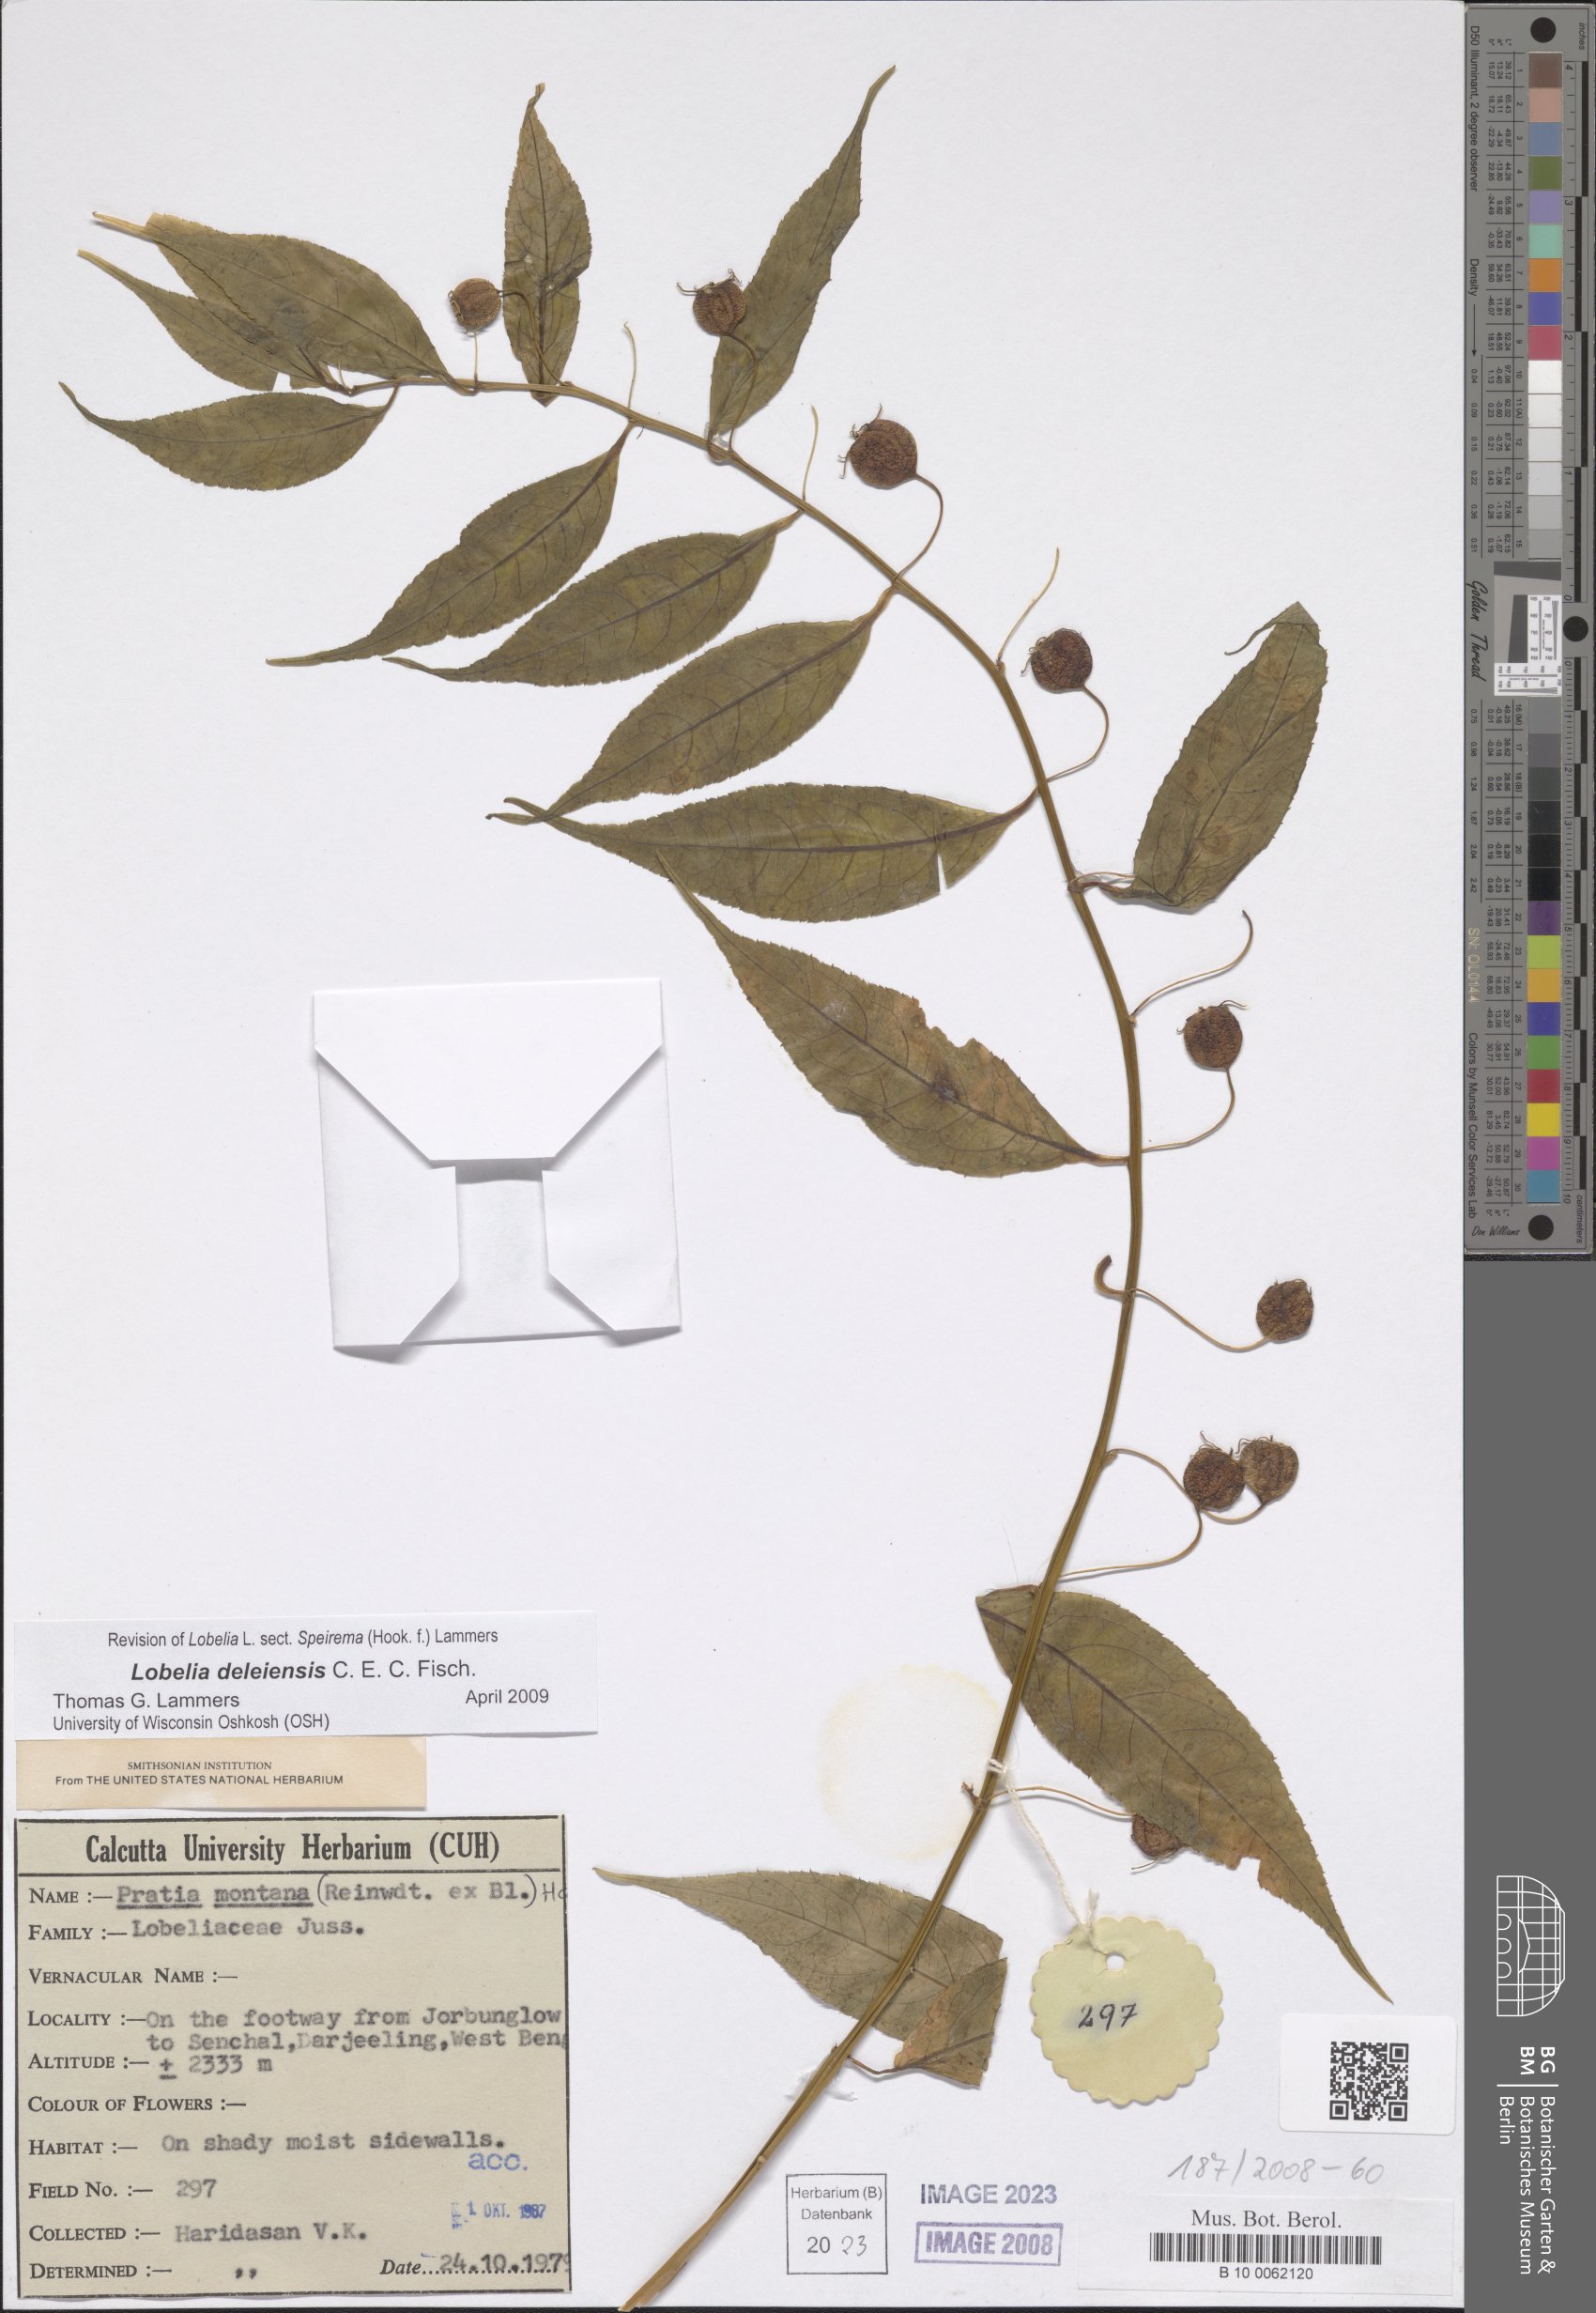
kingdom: Plantae
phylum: Tracheophyta
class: Magnoliopsida
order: Asterales
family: Campanulaceae
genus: Lobelia
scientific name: Lobelia deleiensis
